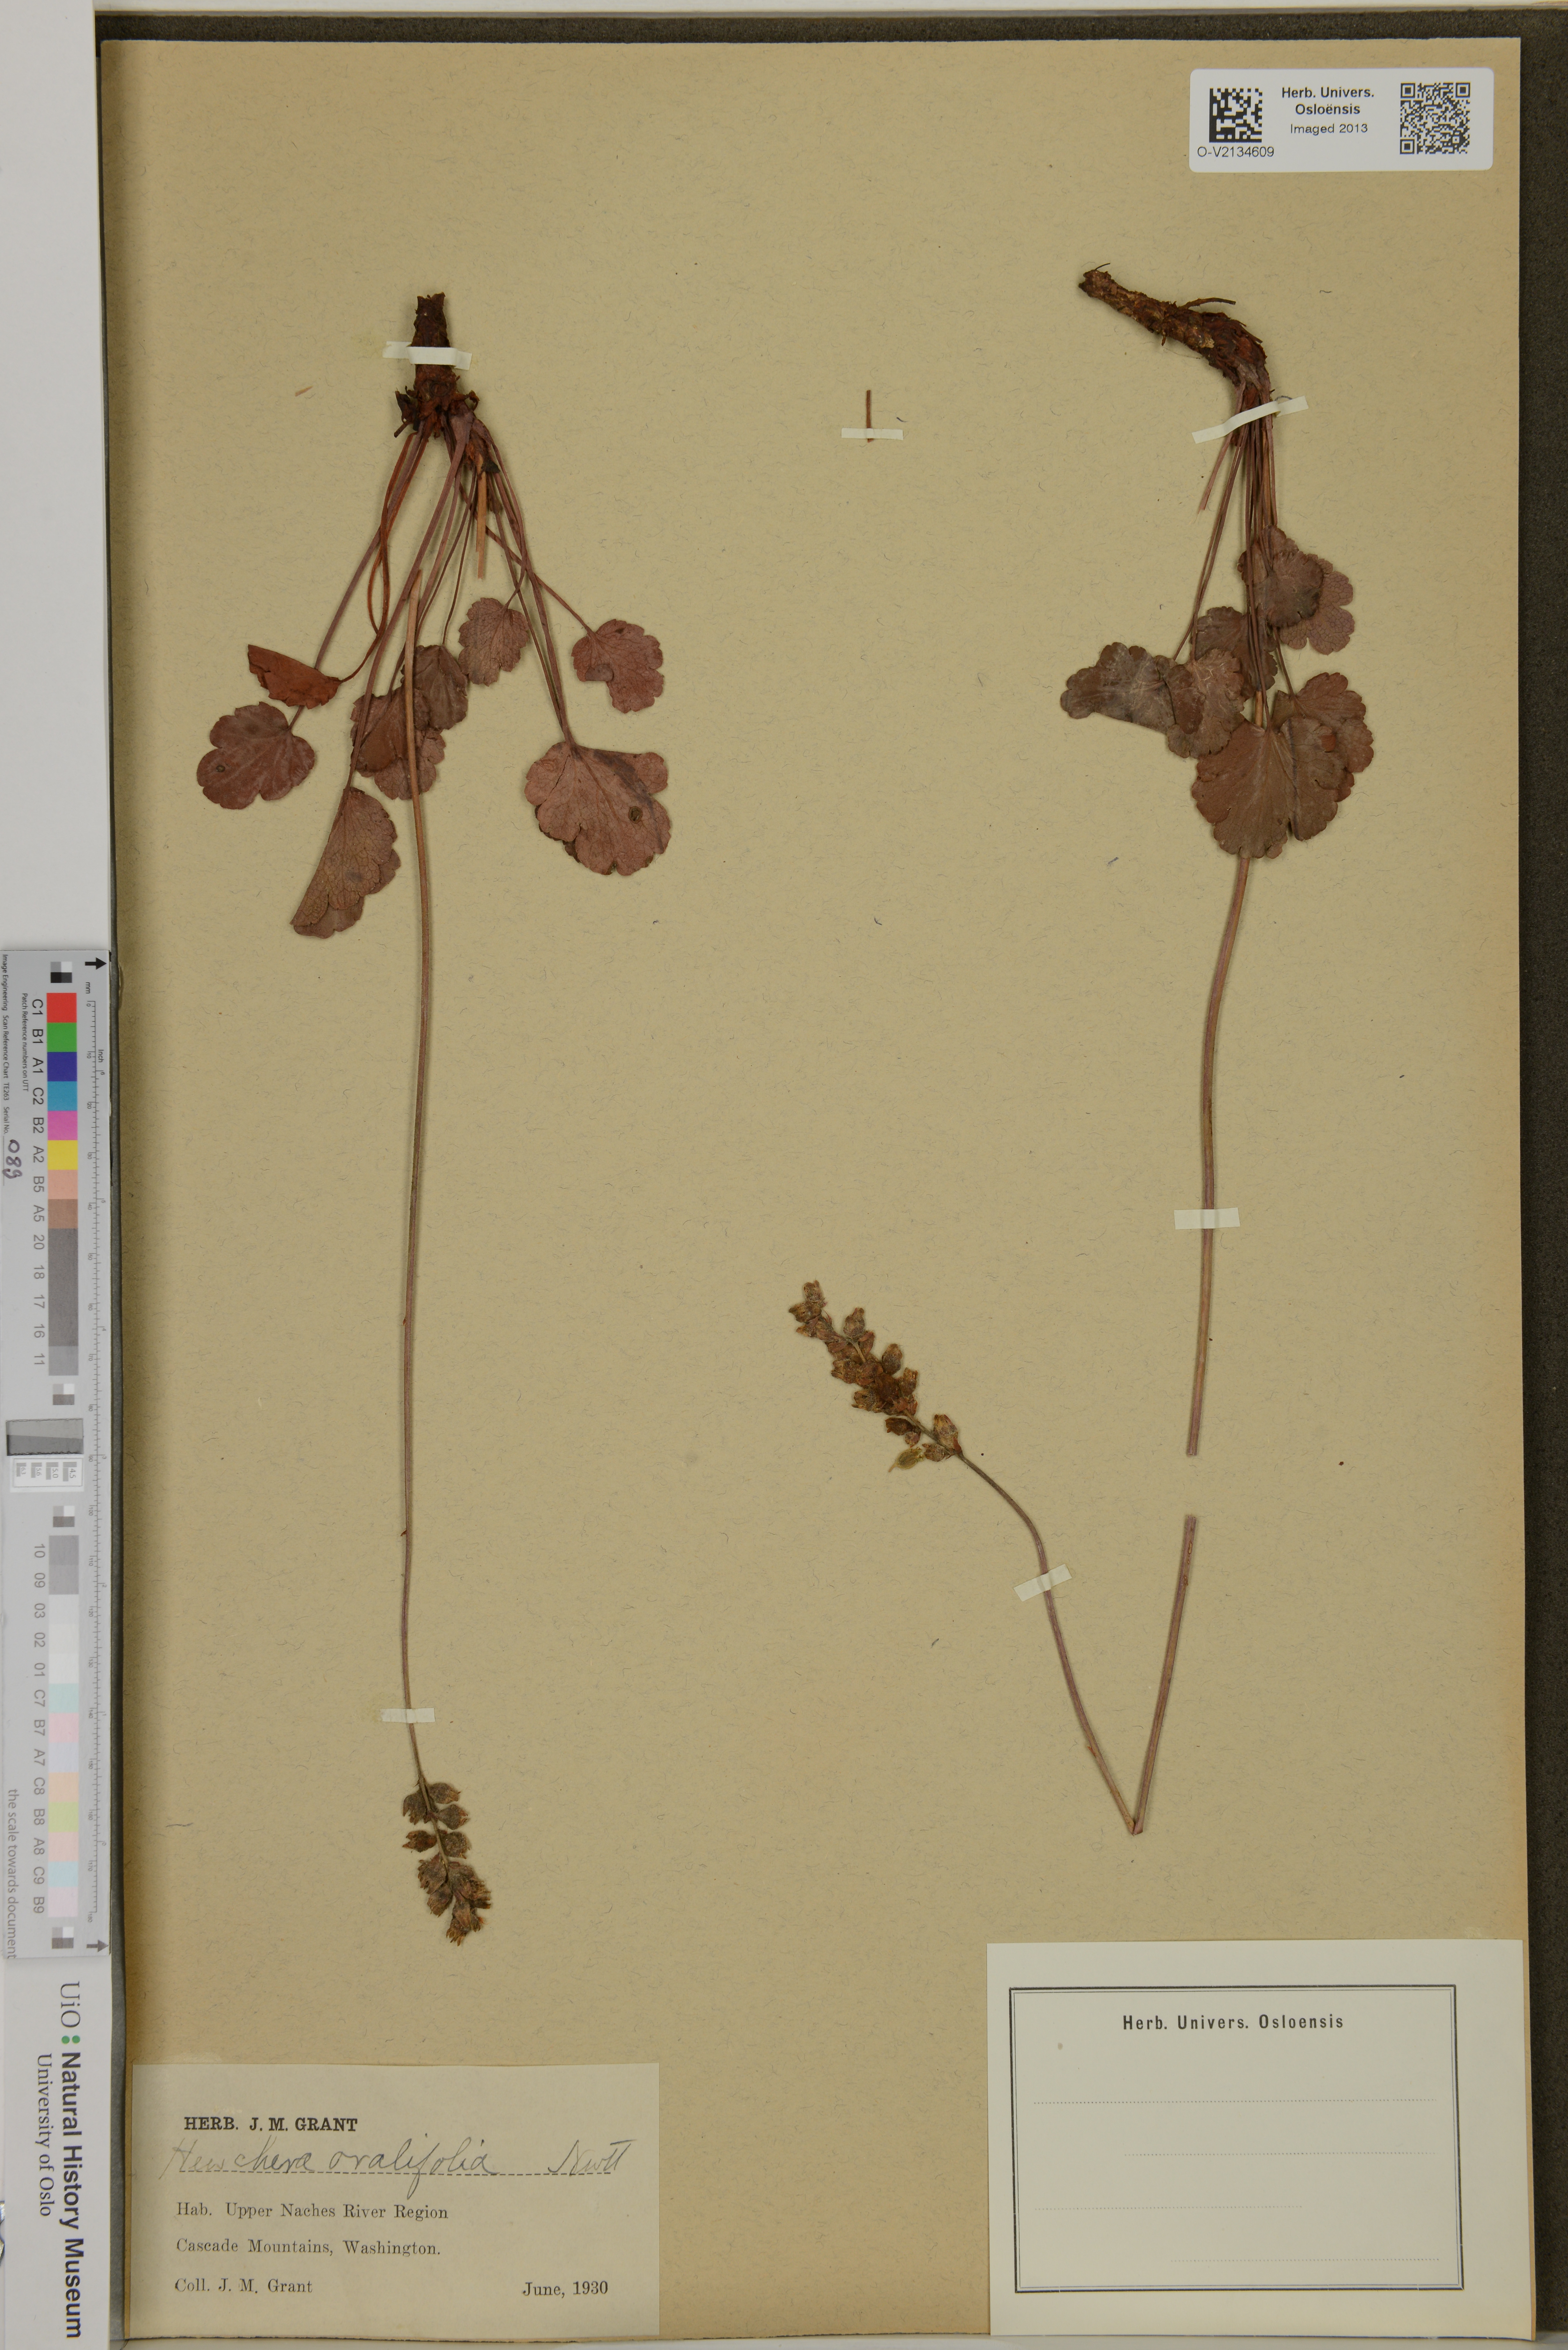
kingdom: Plantae
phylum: Tracheophyta
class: Magnoliopsida
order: Saxifragales
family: Saxifragaceae
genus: Heuchera
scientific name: Heuchera cylindrica
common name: Mat alumroot
